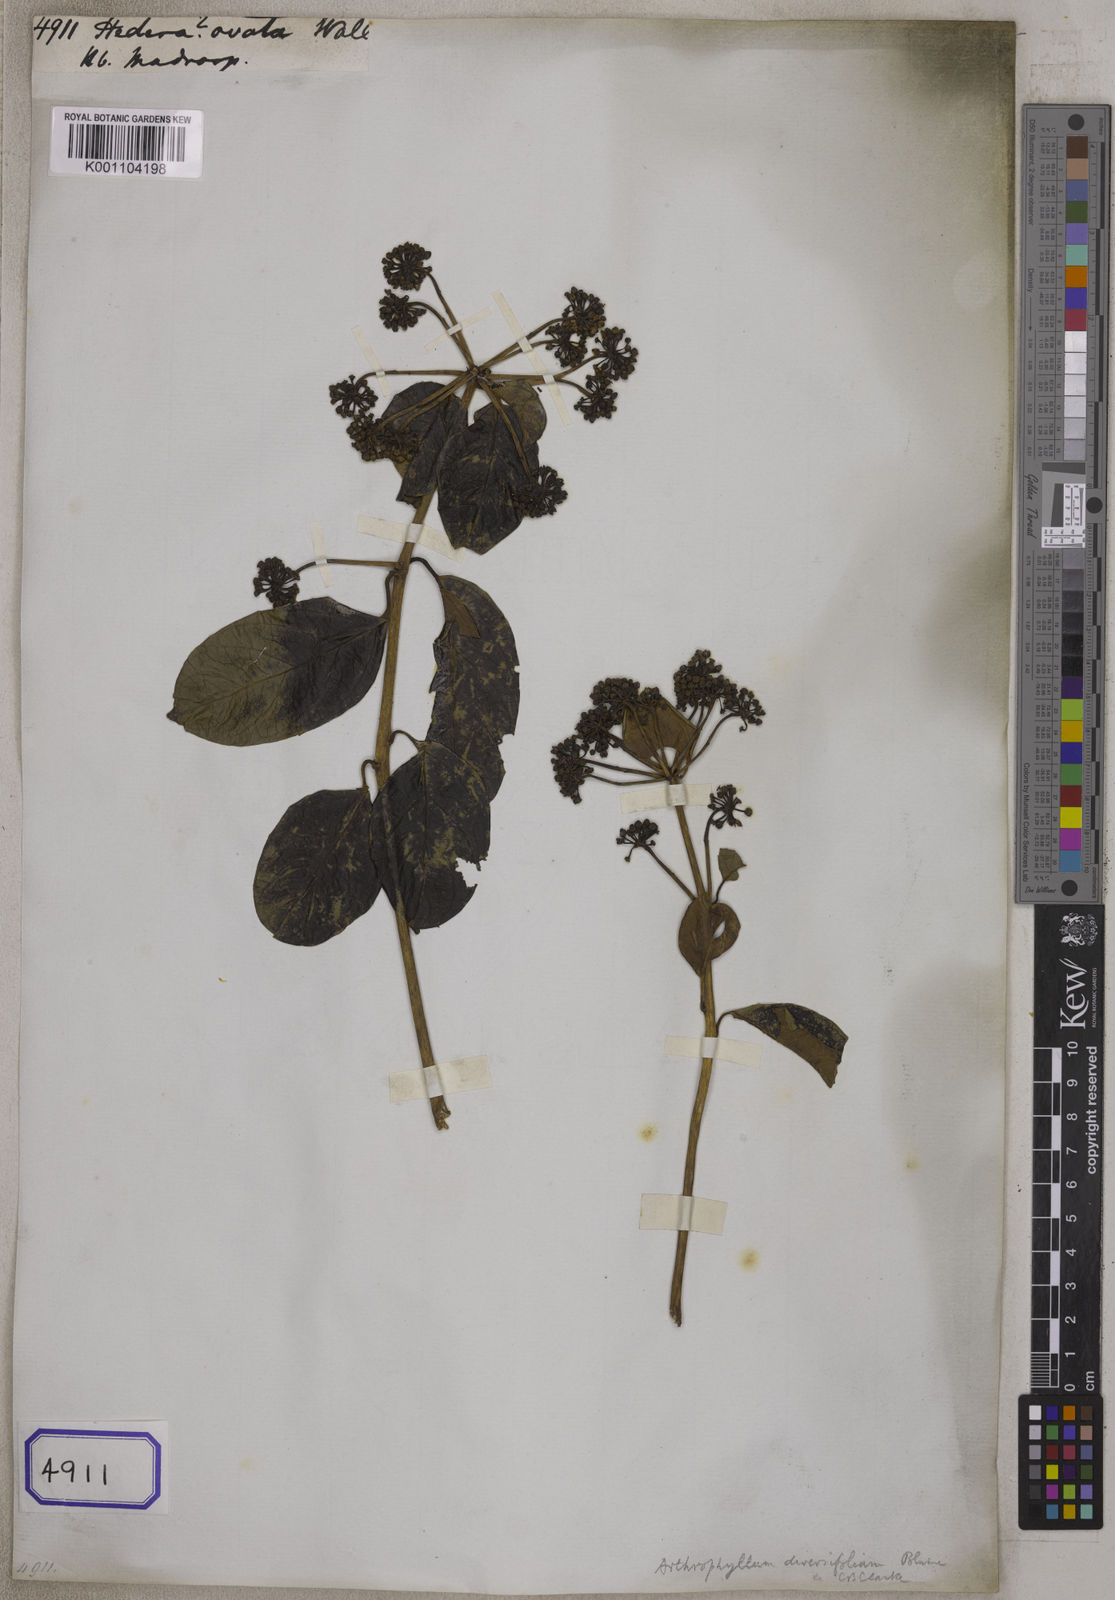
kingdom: Plantae
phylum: Tracheophyta
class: Magnoliopsida
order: Apiales
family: Araliaceae
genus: Hedera
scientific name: Hedera
